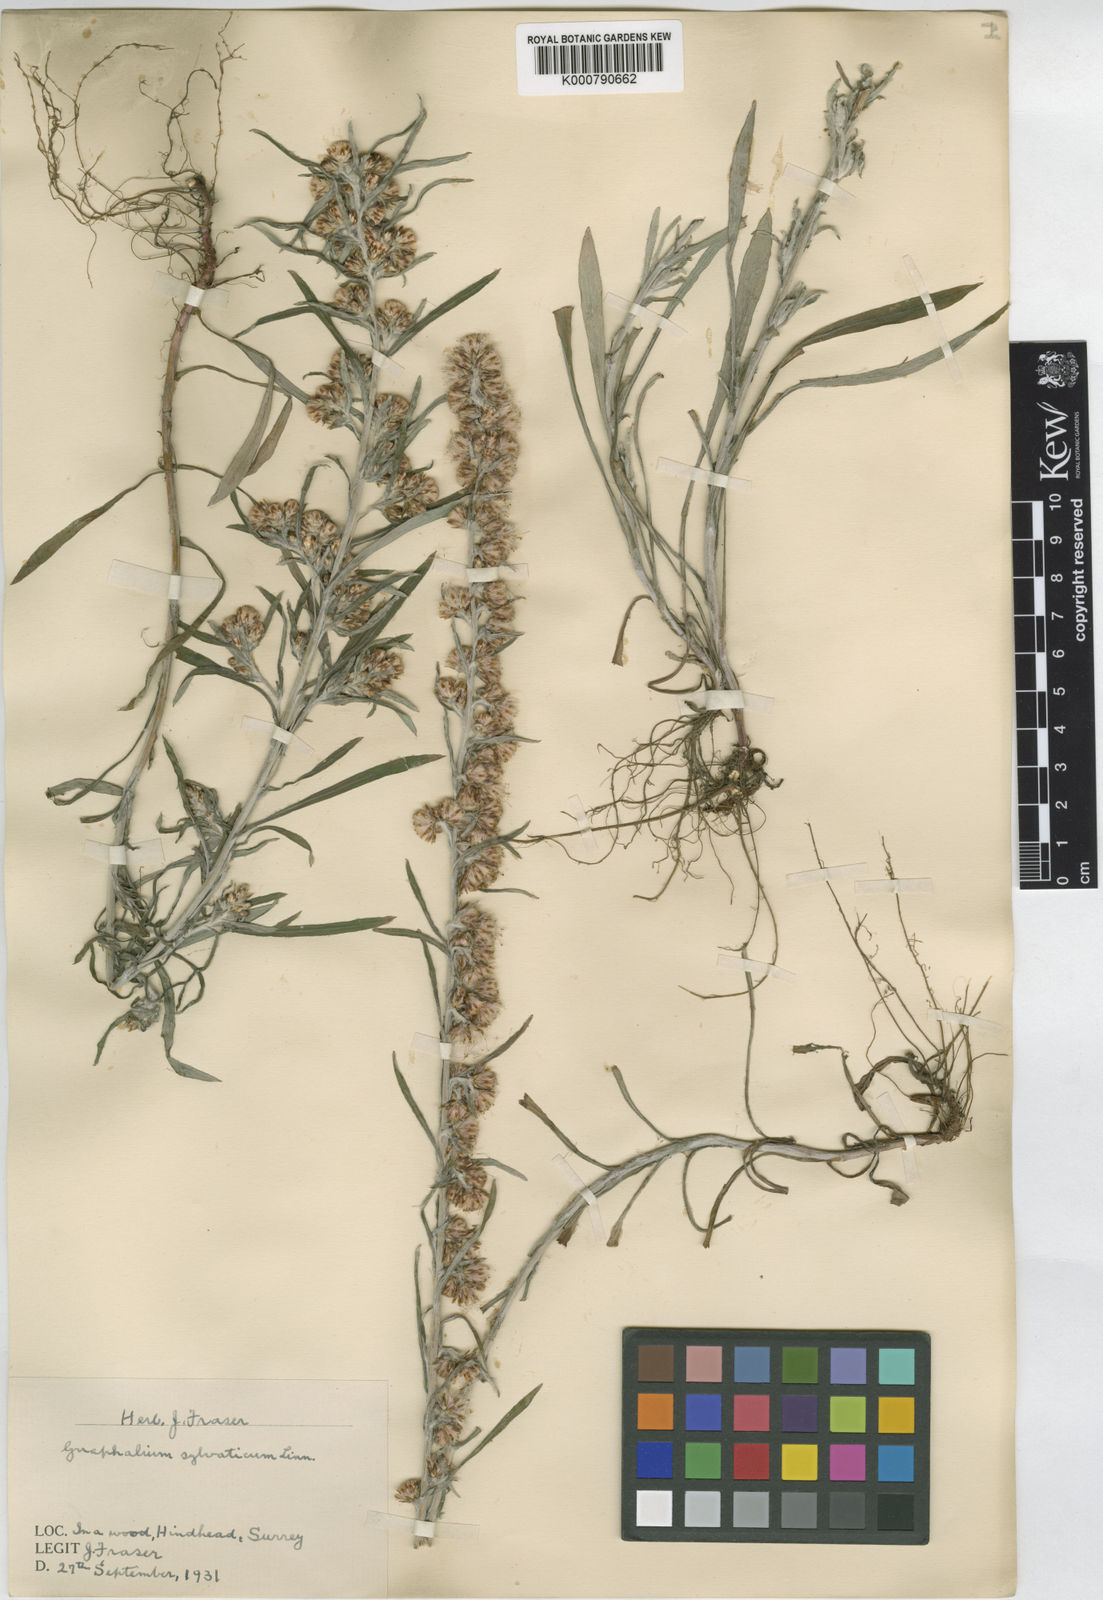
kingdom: Plantae
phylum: Tracheophyta
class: Magnoliopsida
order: Asterales
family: Asteraceae
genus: Omalotheca
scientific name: Omalotheca sylvatica
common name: Heath cudweed
